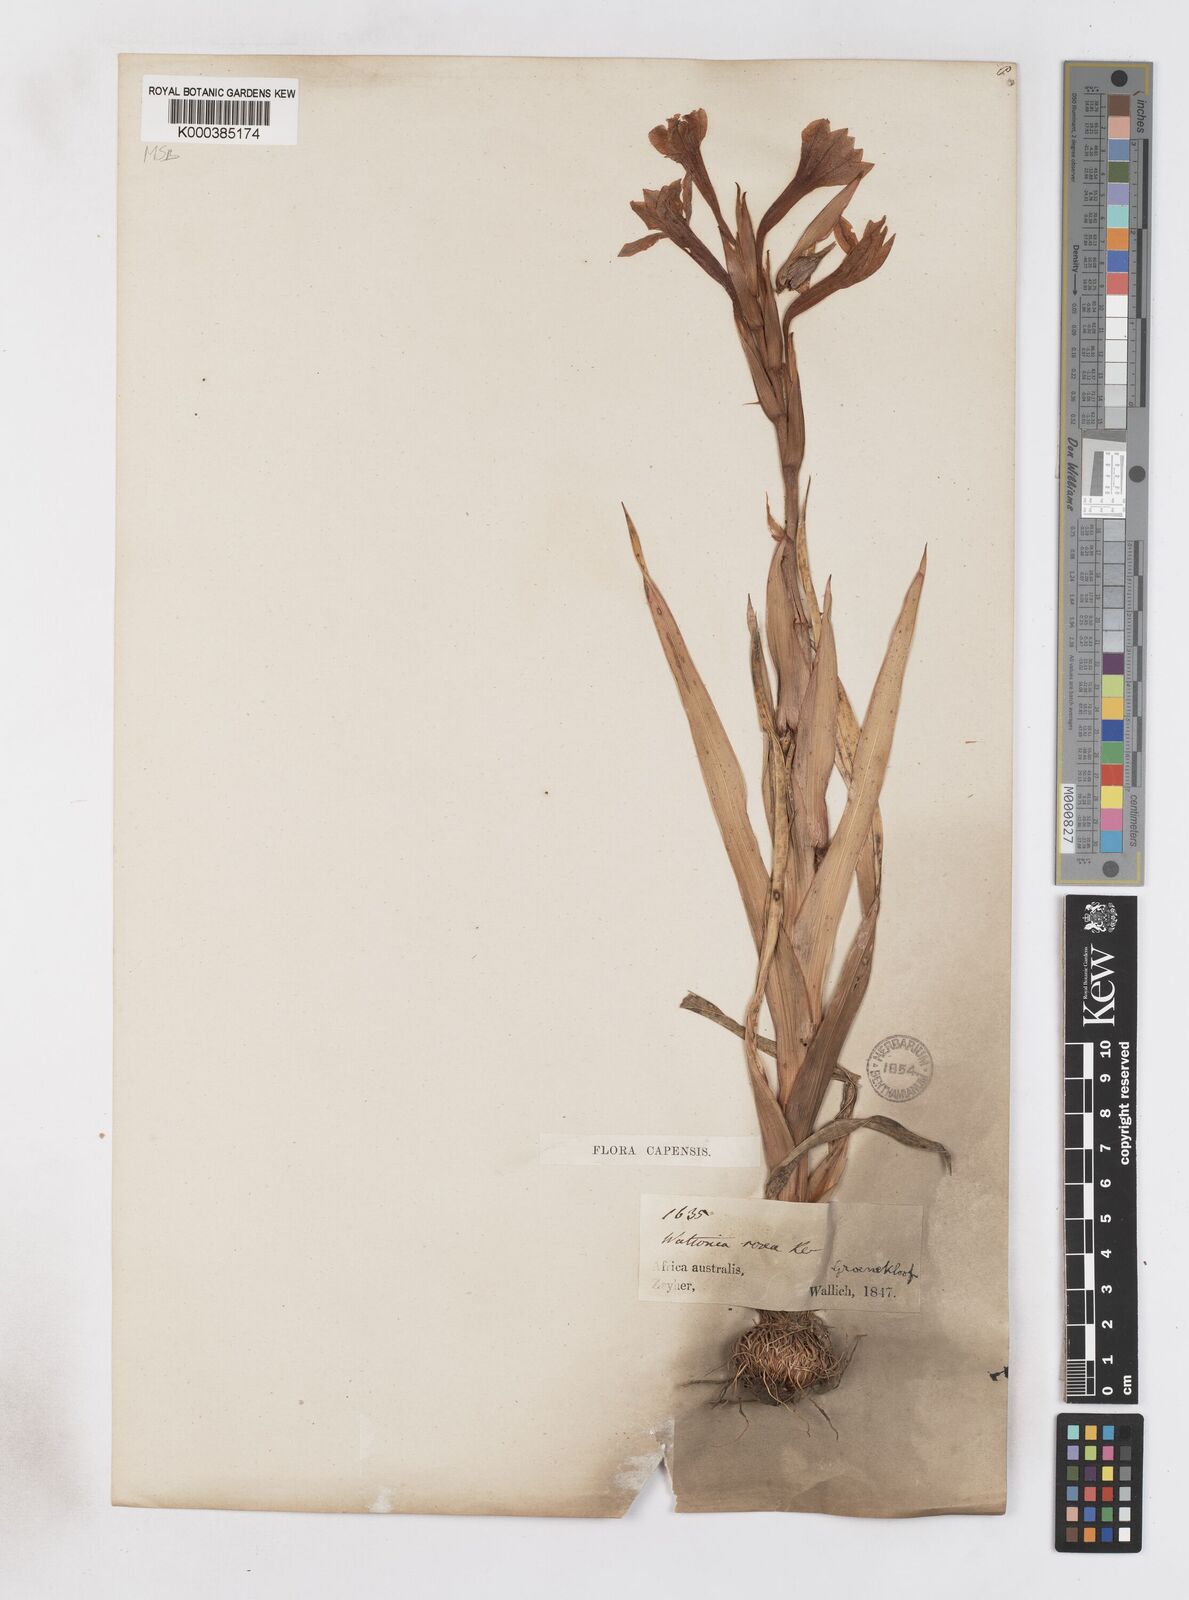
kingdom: Plantae
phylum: Tracheophyta
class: Liliopsida
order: Asparagales
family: Iridaceae
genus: Watsonia
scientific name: Watsonia humilis
